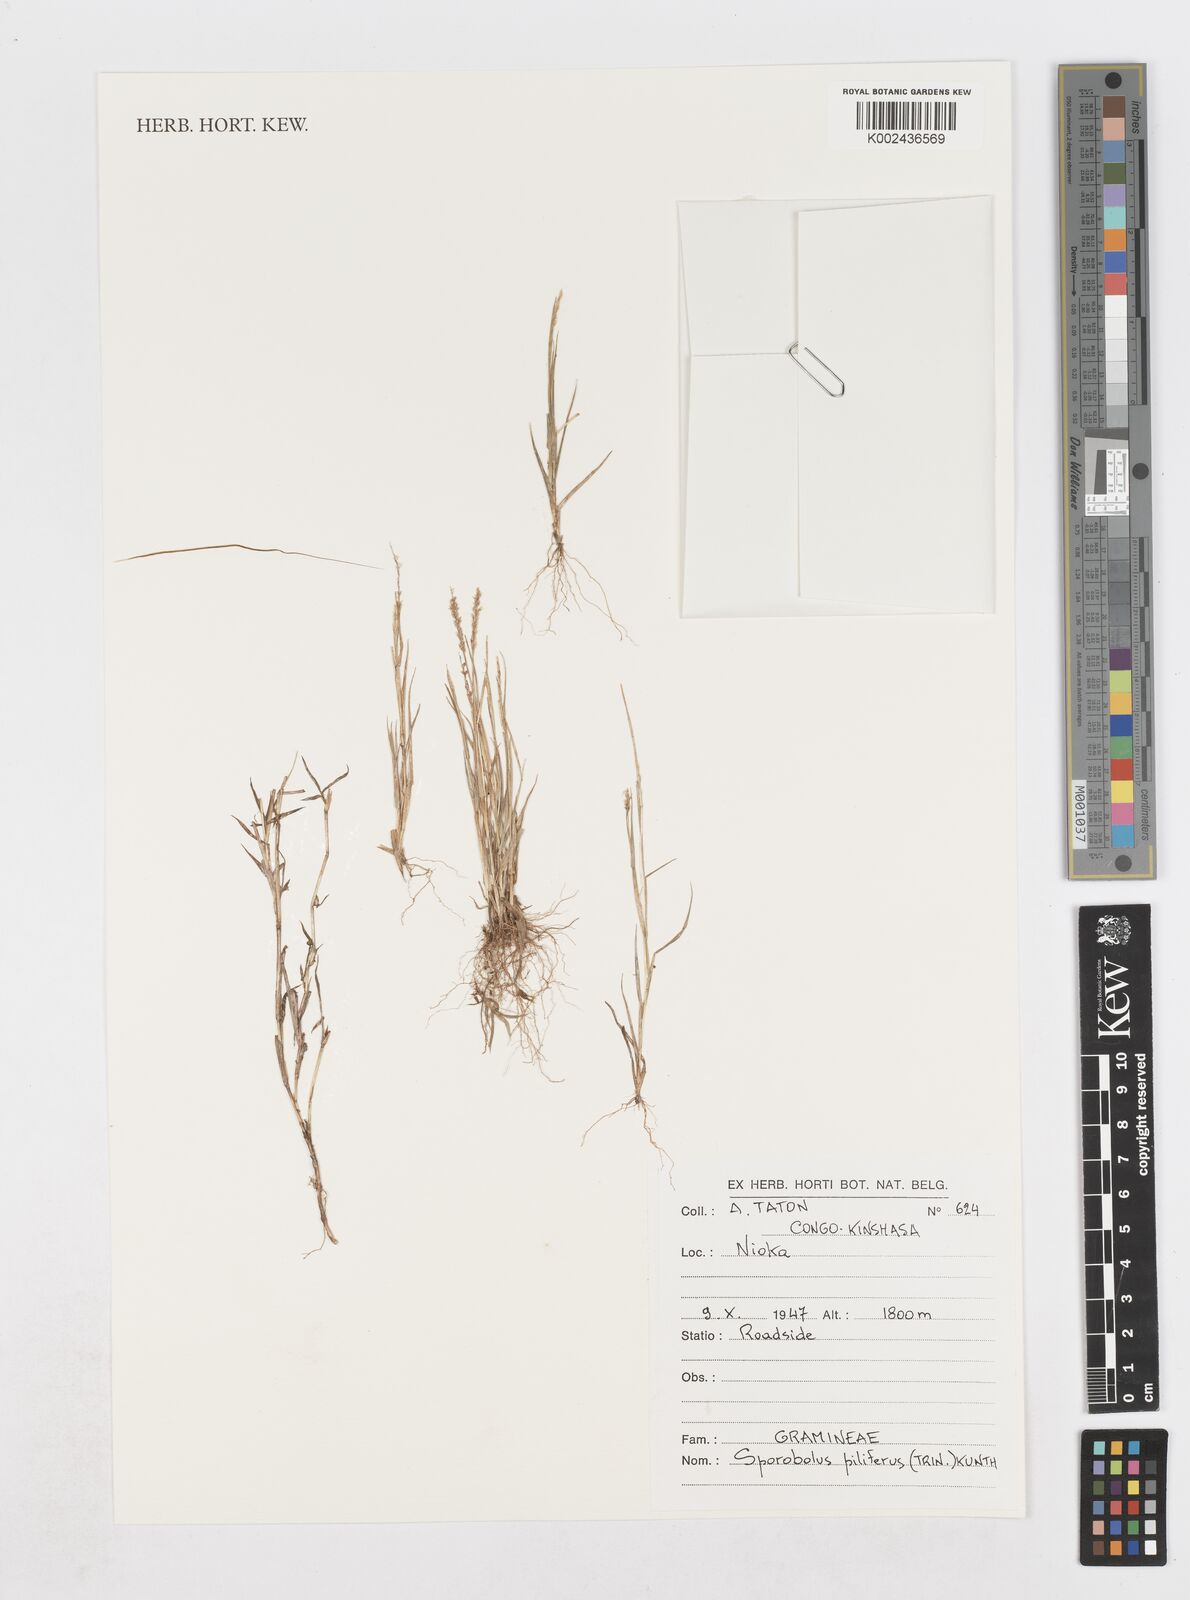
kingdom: Plantae
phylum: Tracheophyta
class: Liliopsida
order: Poales
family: Poaceae
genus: Sporobolus
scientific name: Sporobolus pilifer
